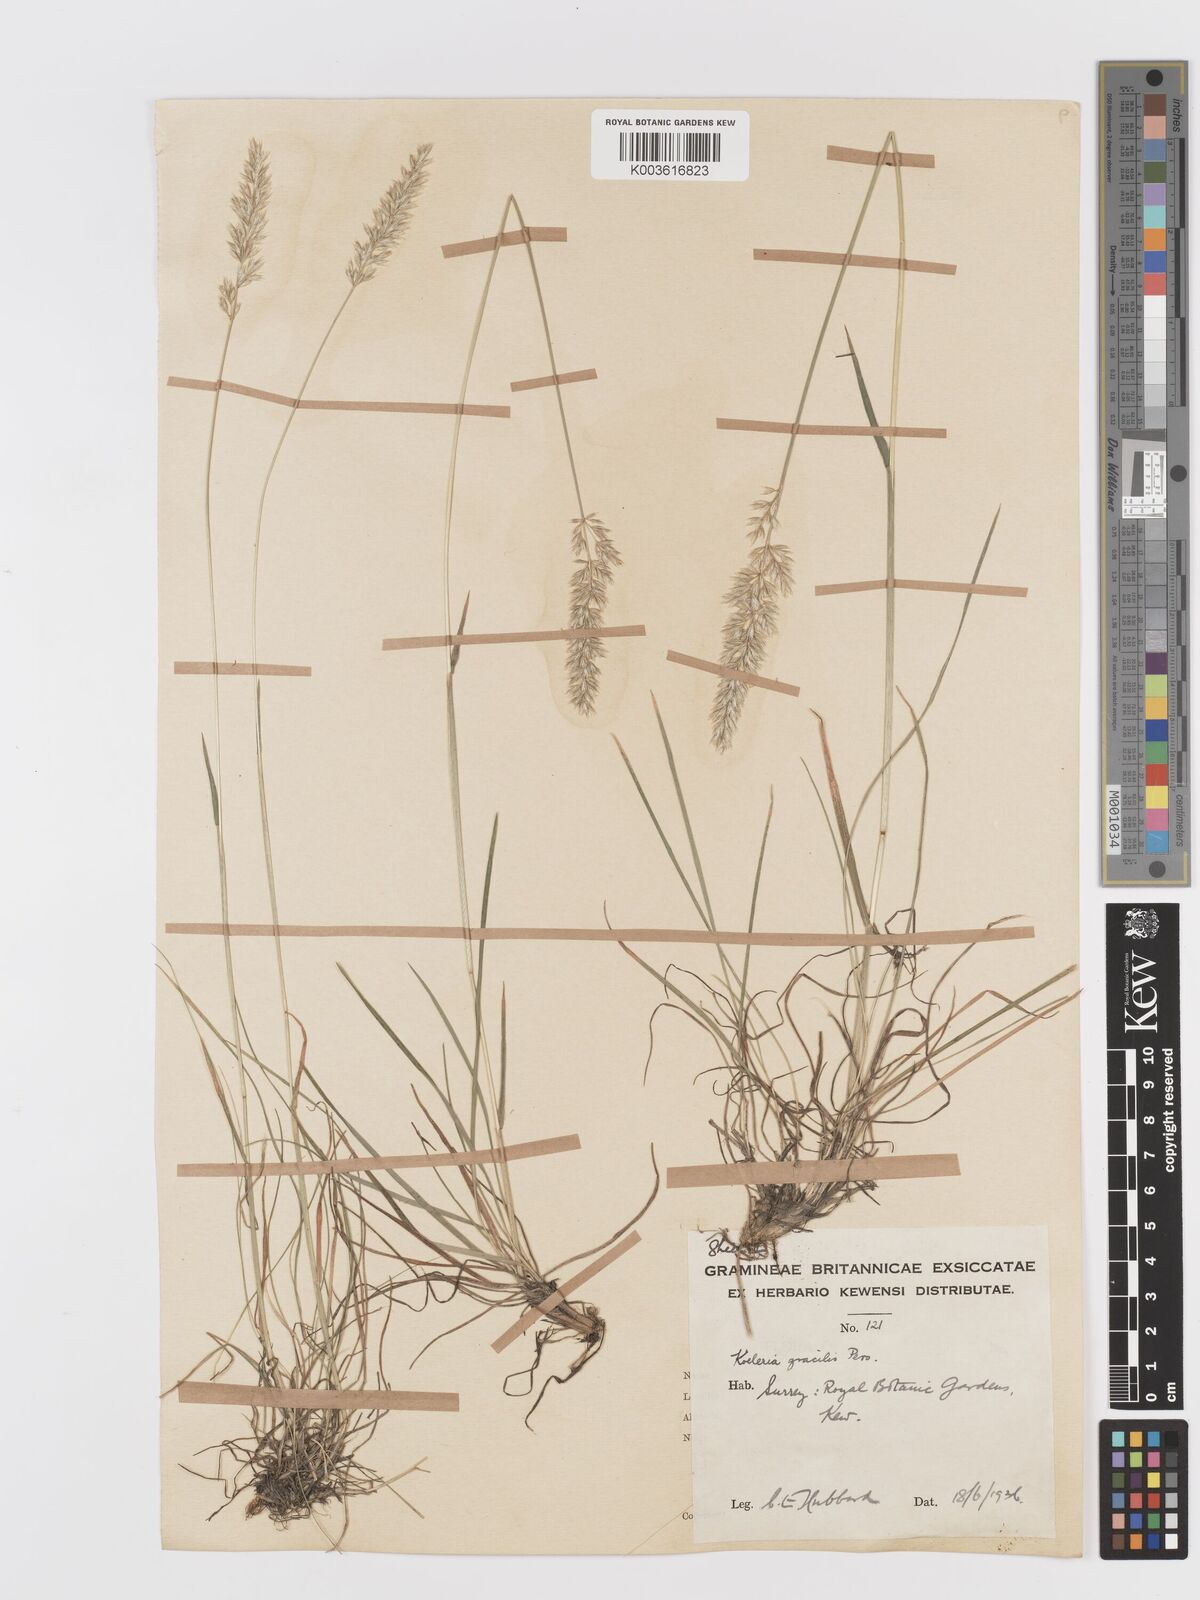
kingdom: Plantae
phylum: Tracheophyta
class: Liliopsida
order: Poales
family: Poaceae
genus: Koeleria
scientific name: Koeleria macrantha
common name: Crested hair-grass
